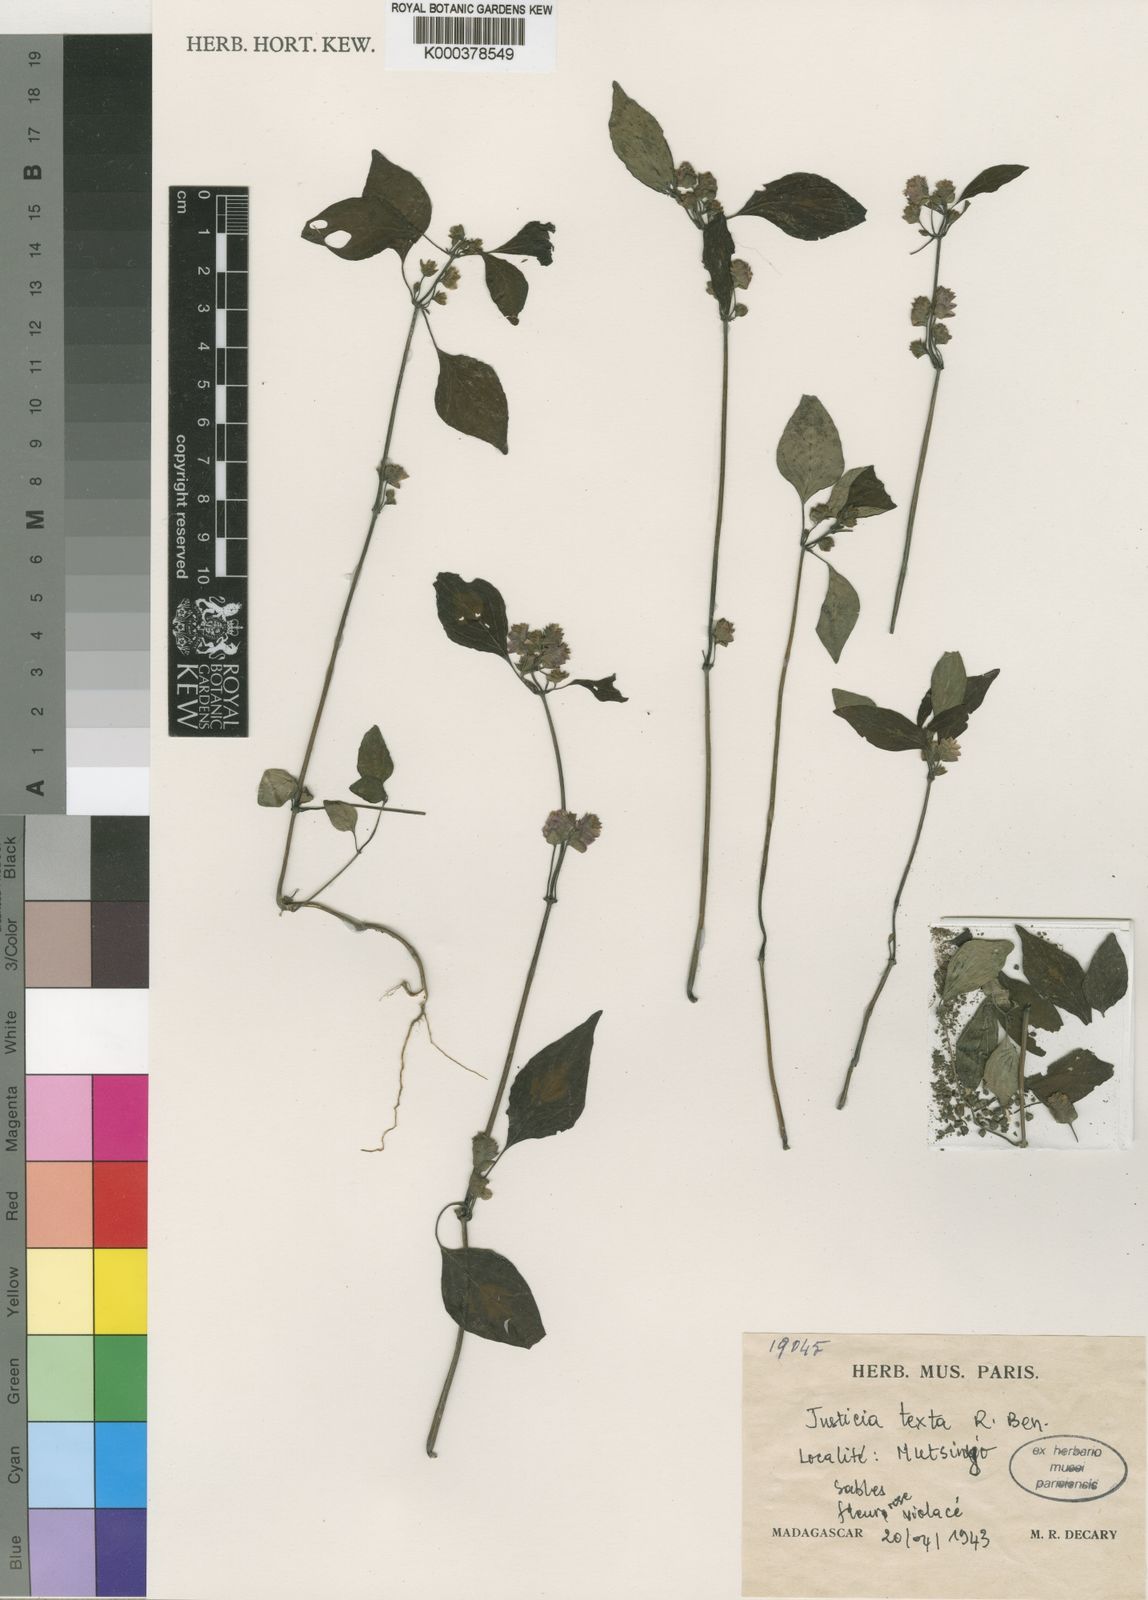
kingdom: Plantae
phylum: Tracheophyta
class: Magnoliopsida
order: Lamiales
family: Acanthaceae
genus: Justicia
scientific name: Justicia
